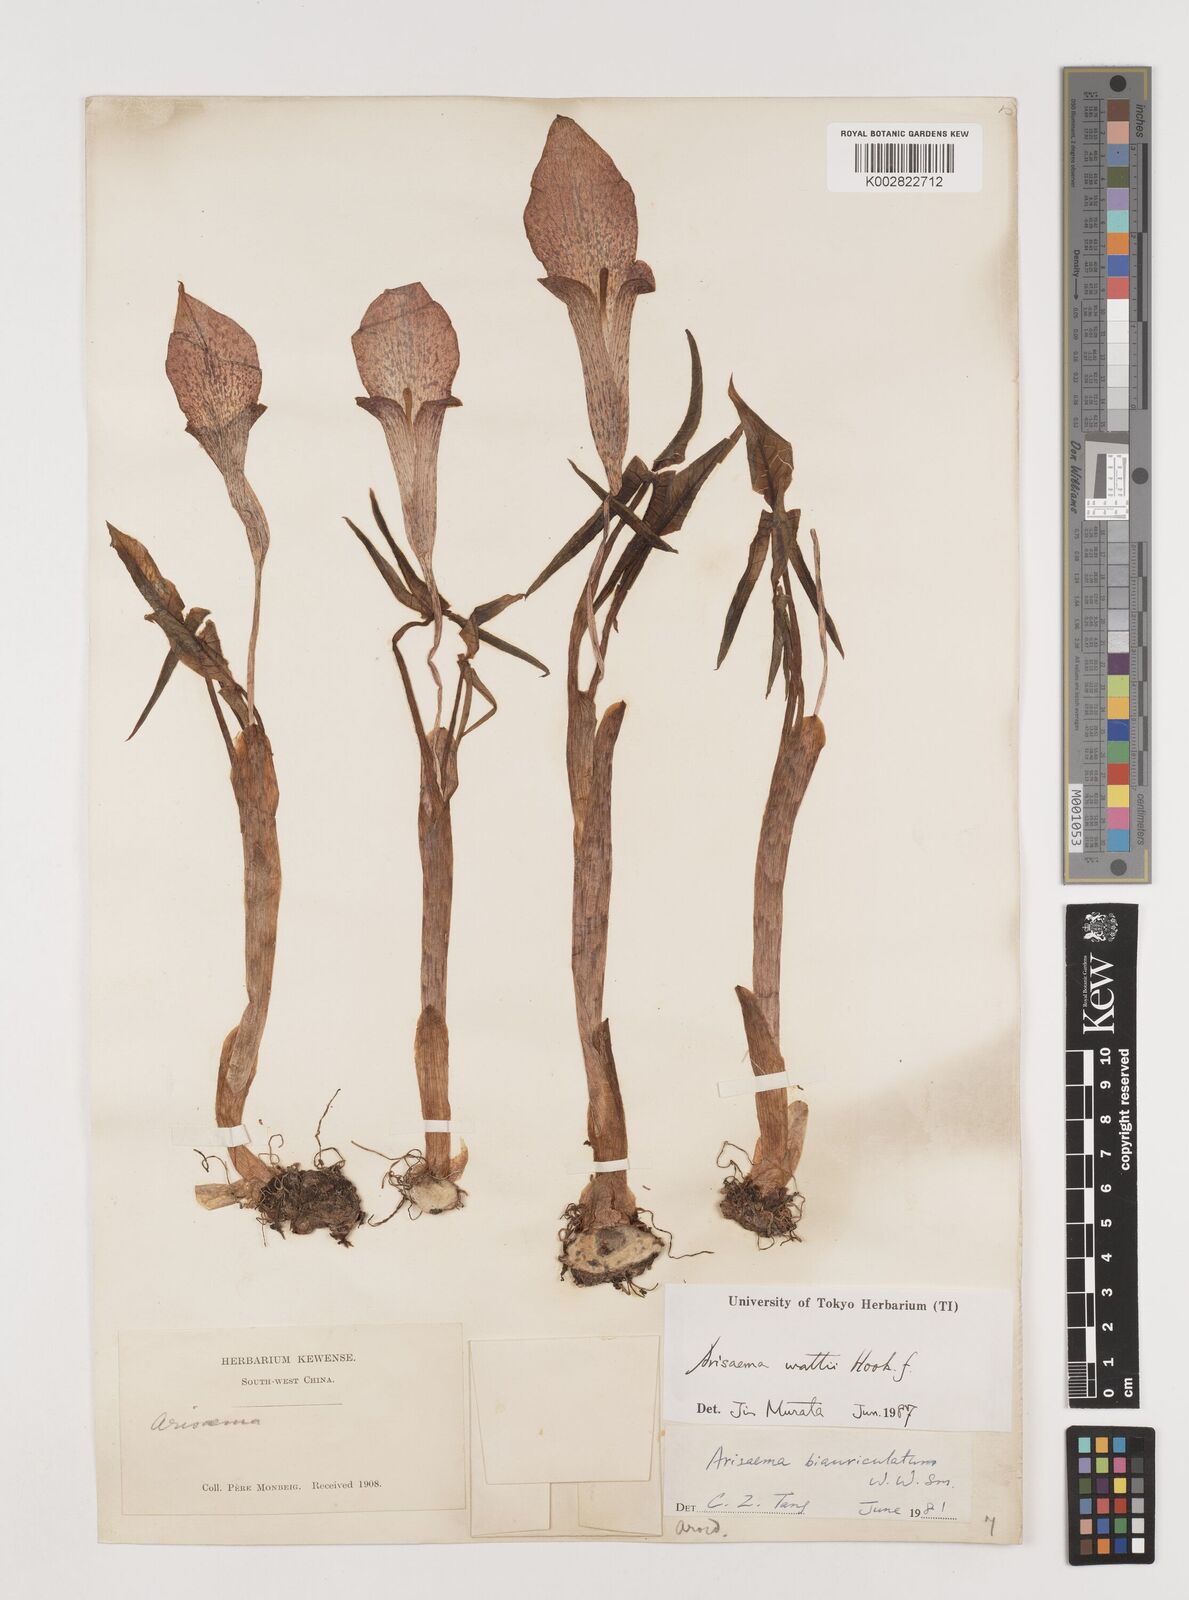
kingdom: Plantae
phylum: Tracheophyta
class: Liliopsida
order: Alismatales
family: Araceae
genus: Arisaema
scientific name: Arisaema wattii
